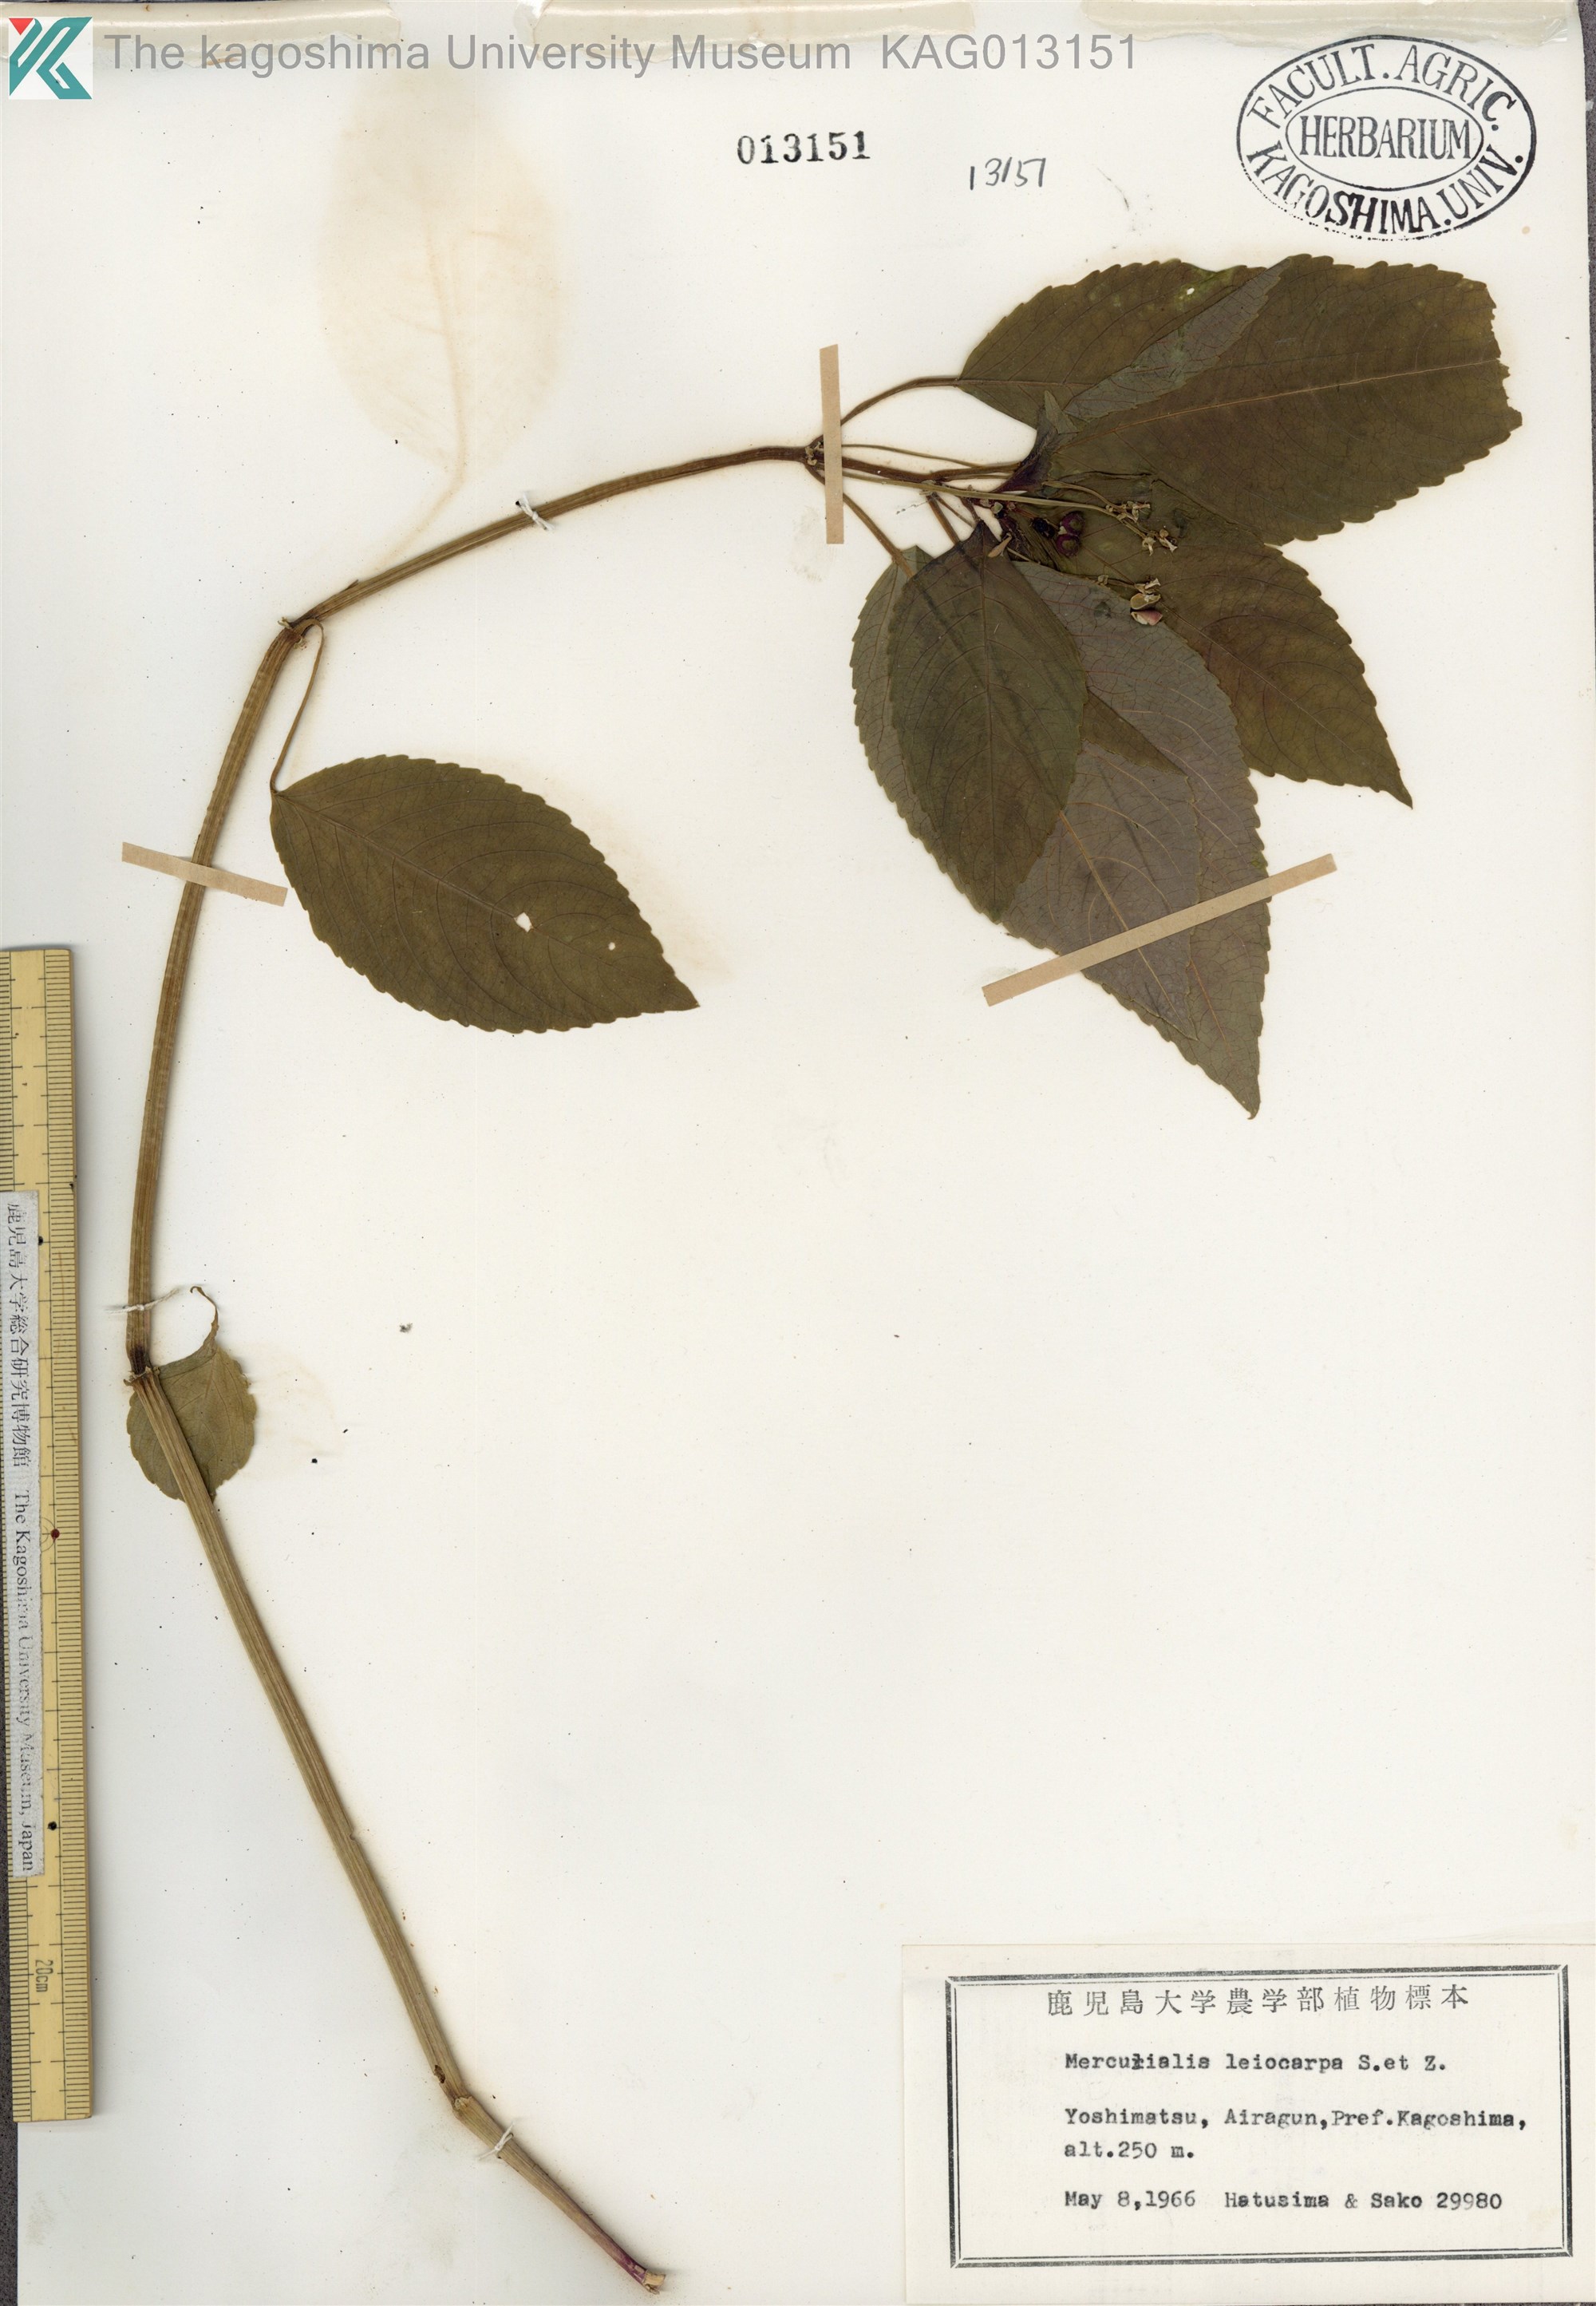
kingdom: Plantae
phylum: Tracheophyta
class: Magnoliopsida
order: Malpighiales
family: Euphorbiaceae
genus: Mercurialis
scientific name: Mercurialis leiocarpa
